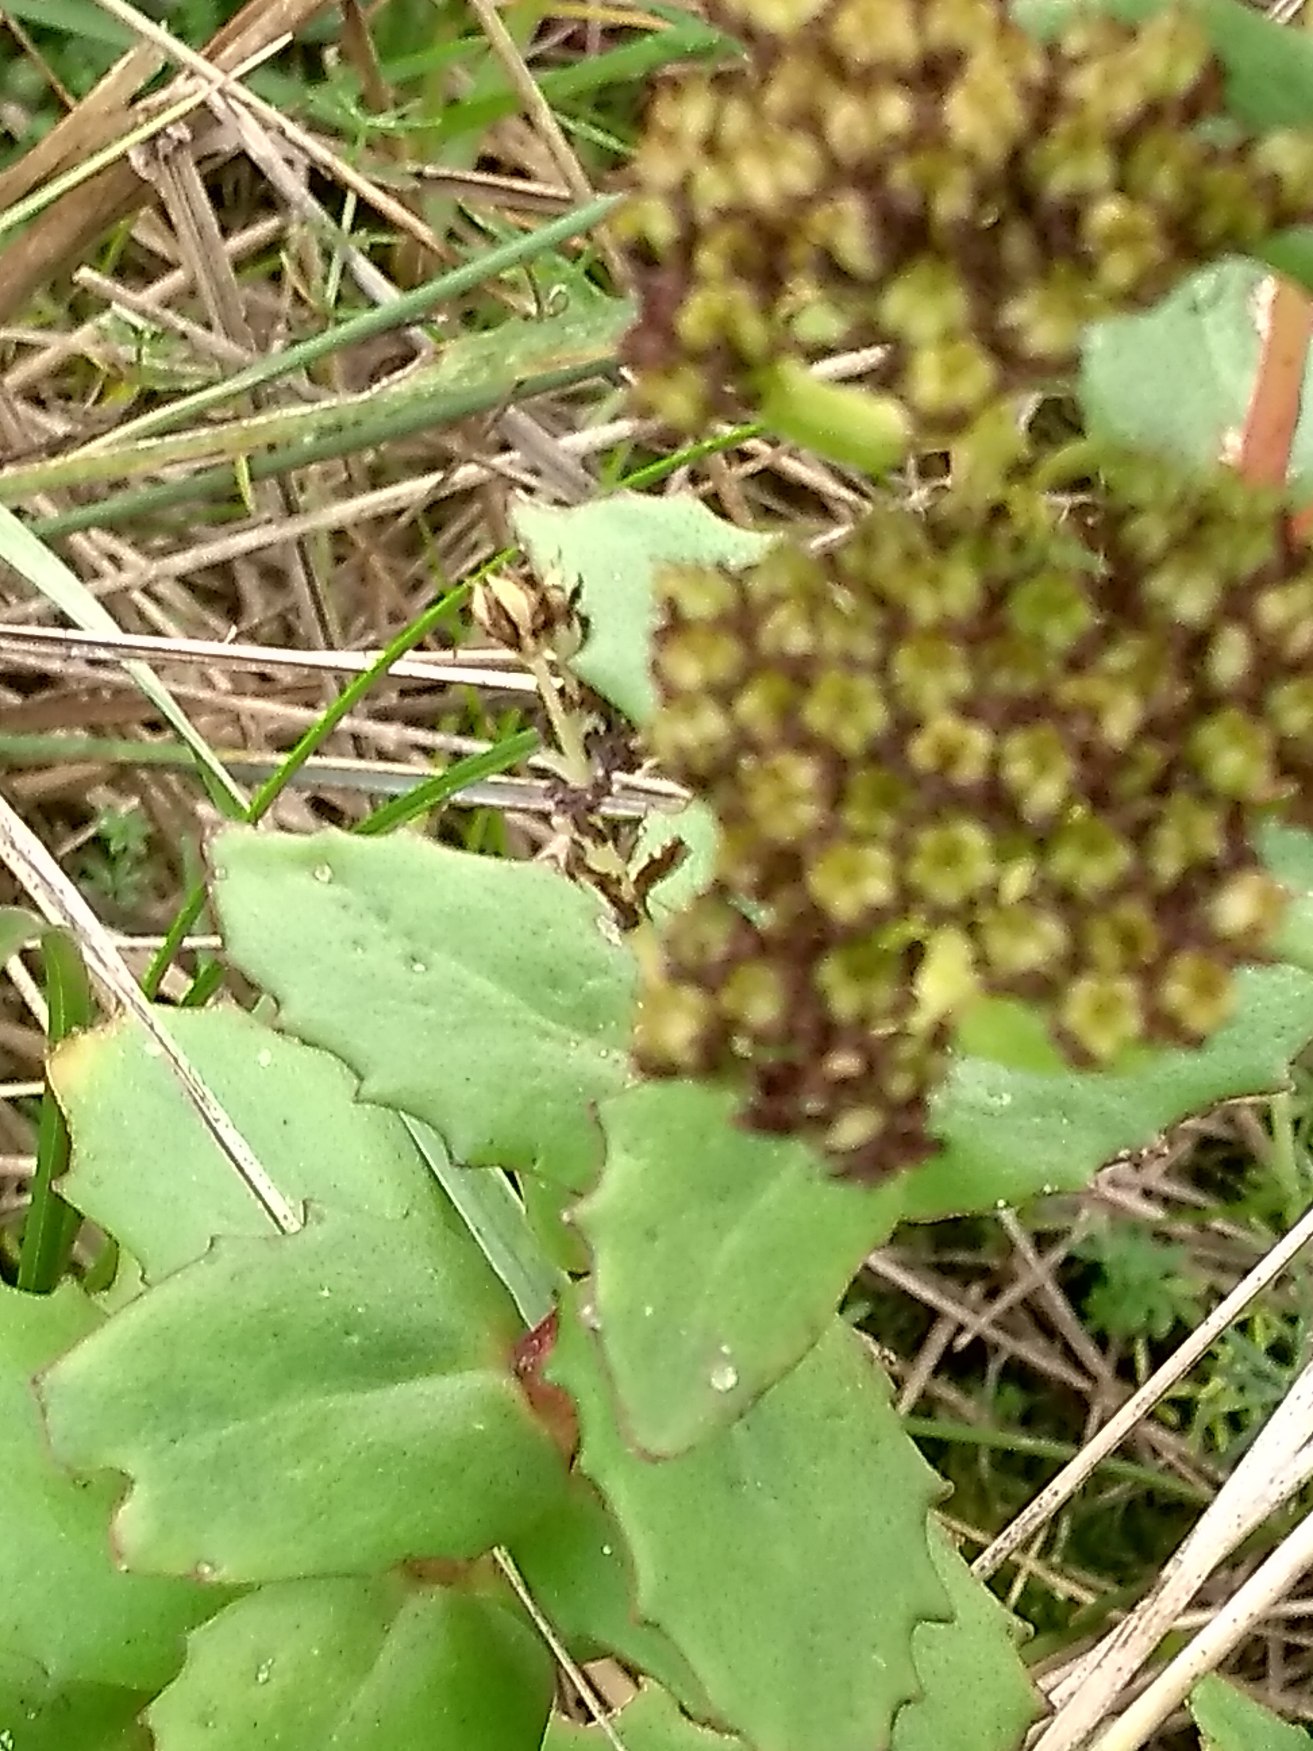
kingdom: Plantae
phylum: Tracheophyta
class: Magnoliopsida
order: Saxifragales
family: Crassulaceae
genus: Hylotelephium
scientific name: Hylotelephium telephium
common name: Sankthansurt
